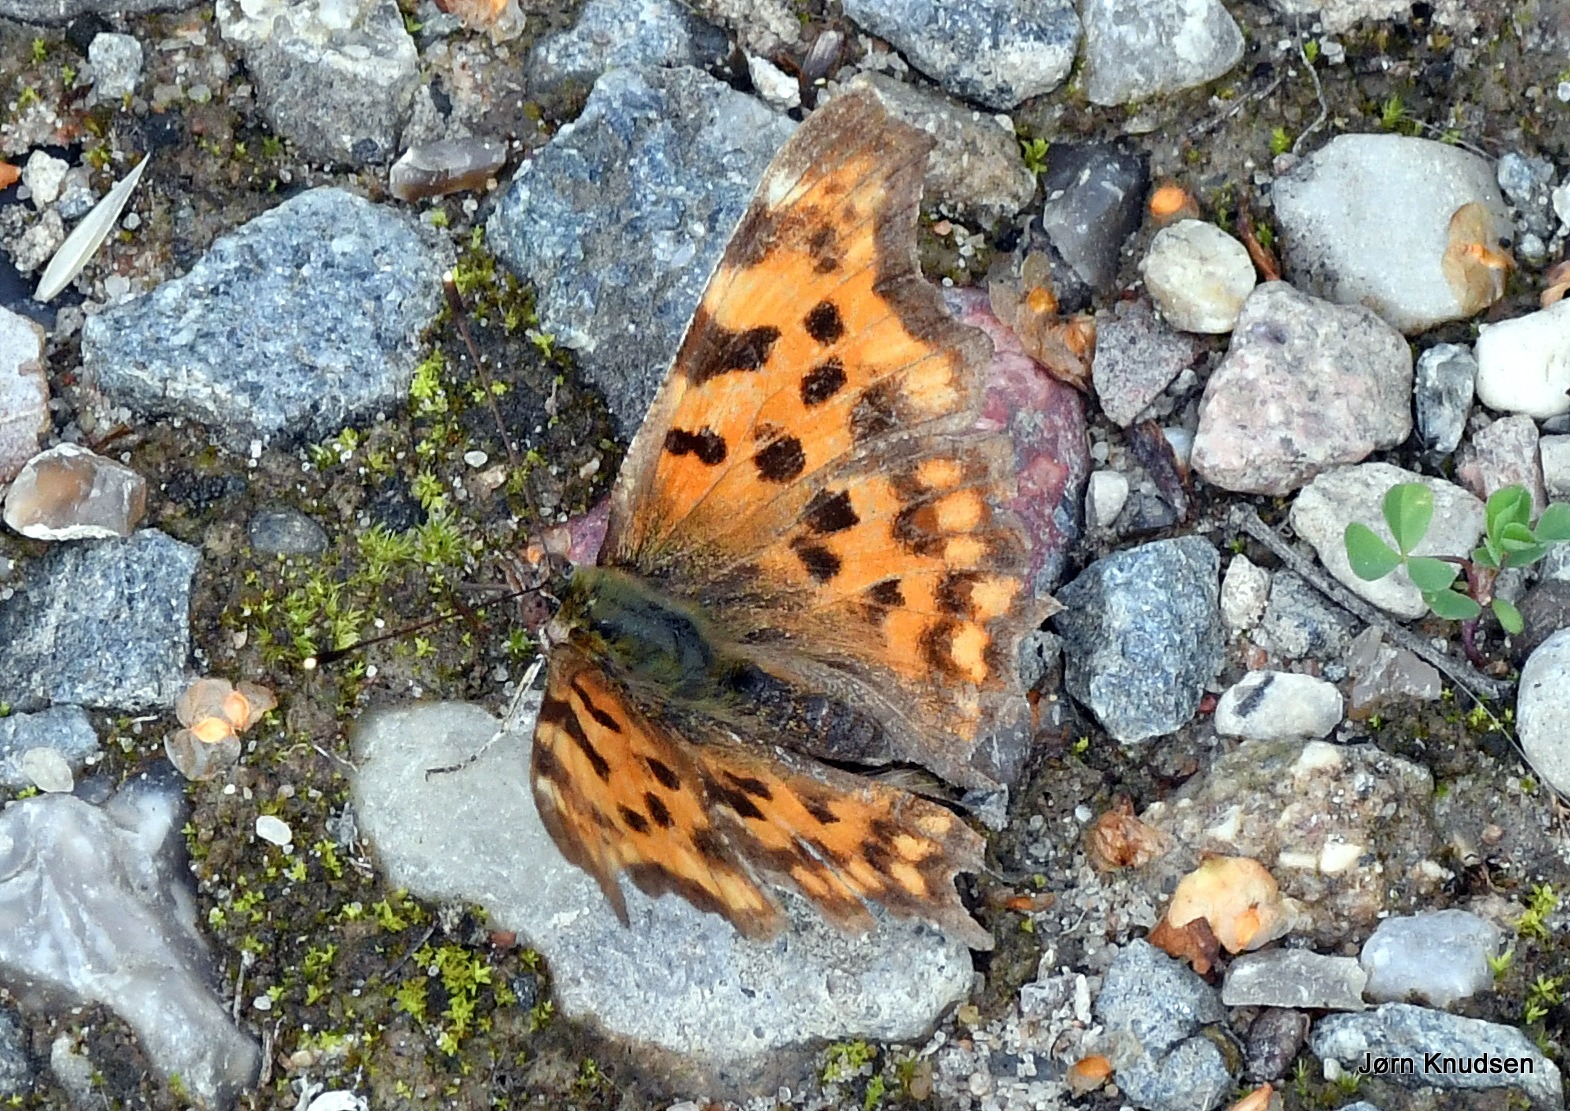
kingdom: Animalia
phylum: Arthropoda
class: Insecta
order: Lepidoptera
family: Nymphalidae
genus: Polygonia
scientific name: Polygonia c-album
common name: Det hvide C
